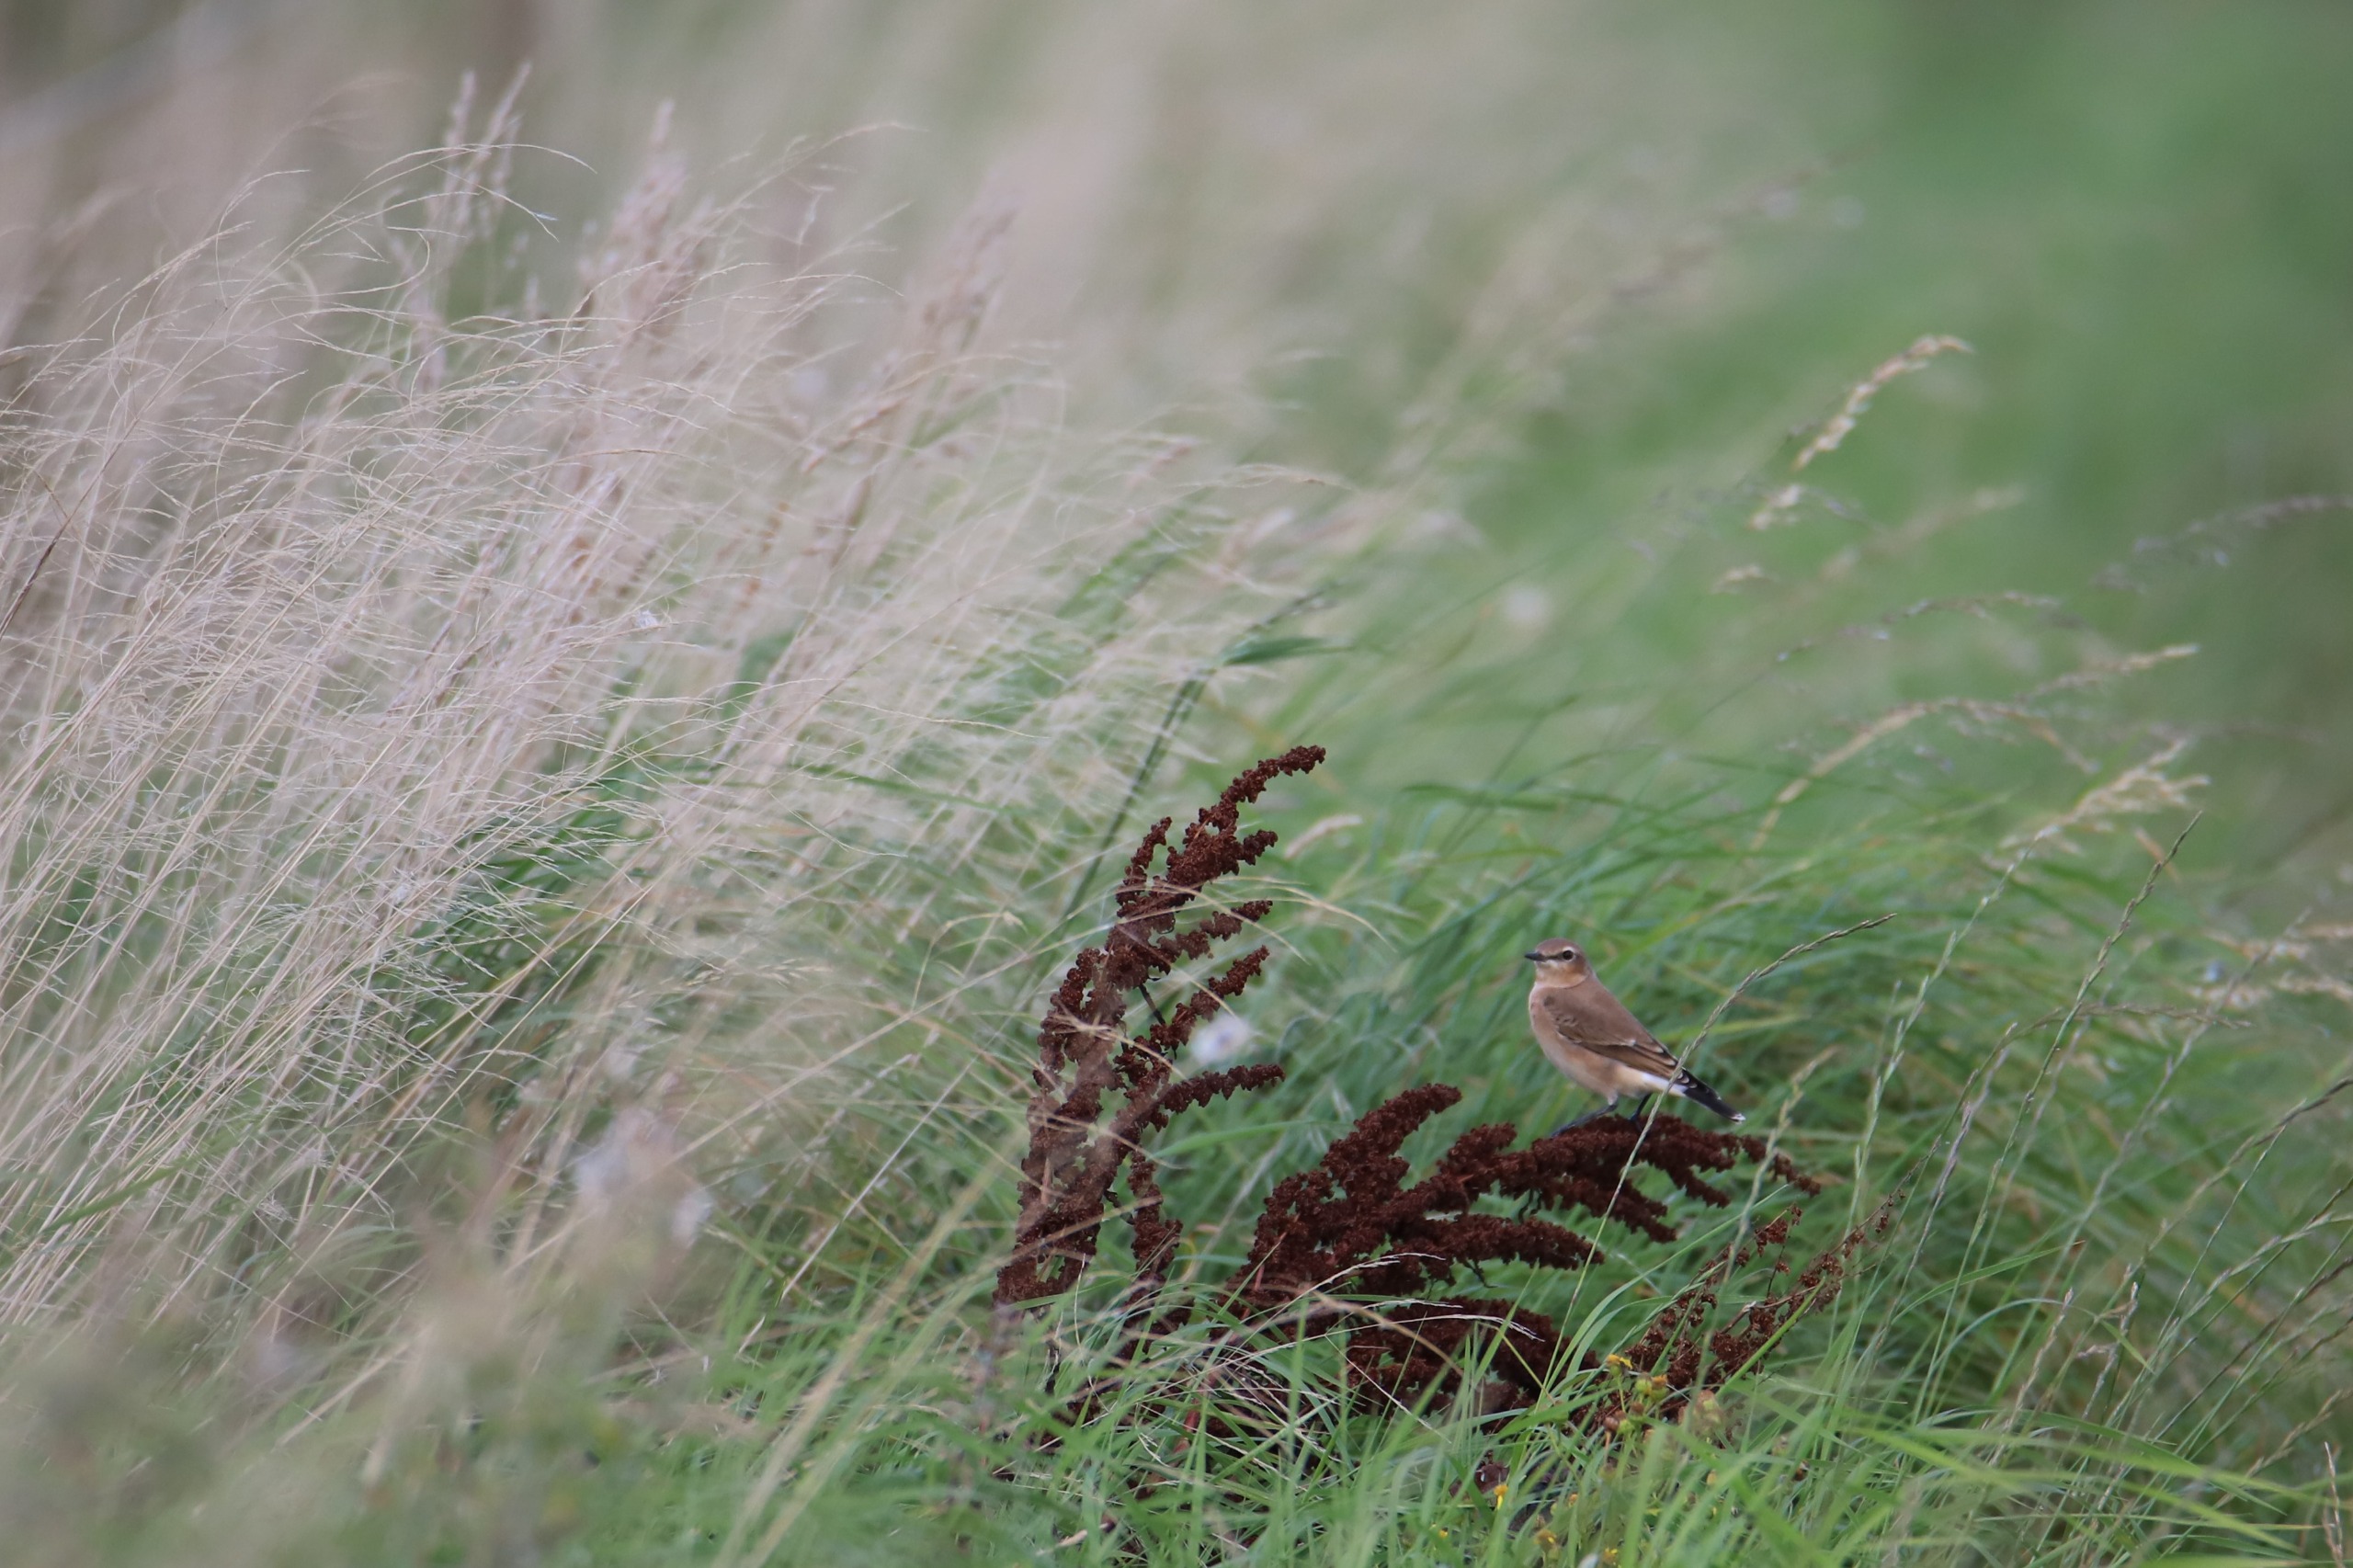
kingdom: Animalia
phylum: Chordata
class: Aves
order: Passeriformes
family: Muscicapidae
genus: Oenanthe
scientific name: Oenanthe oenanthe
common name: Stenpikker
